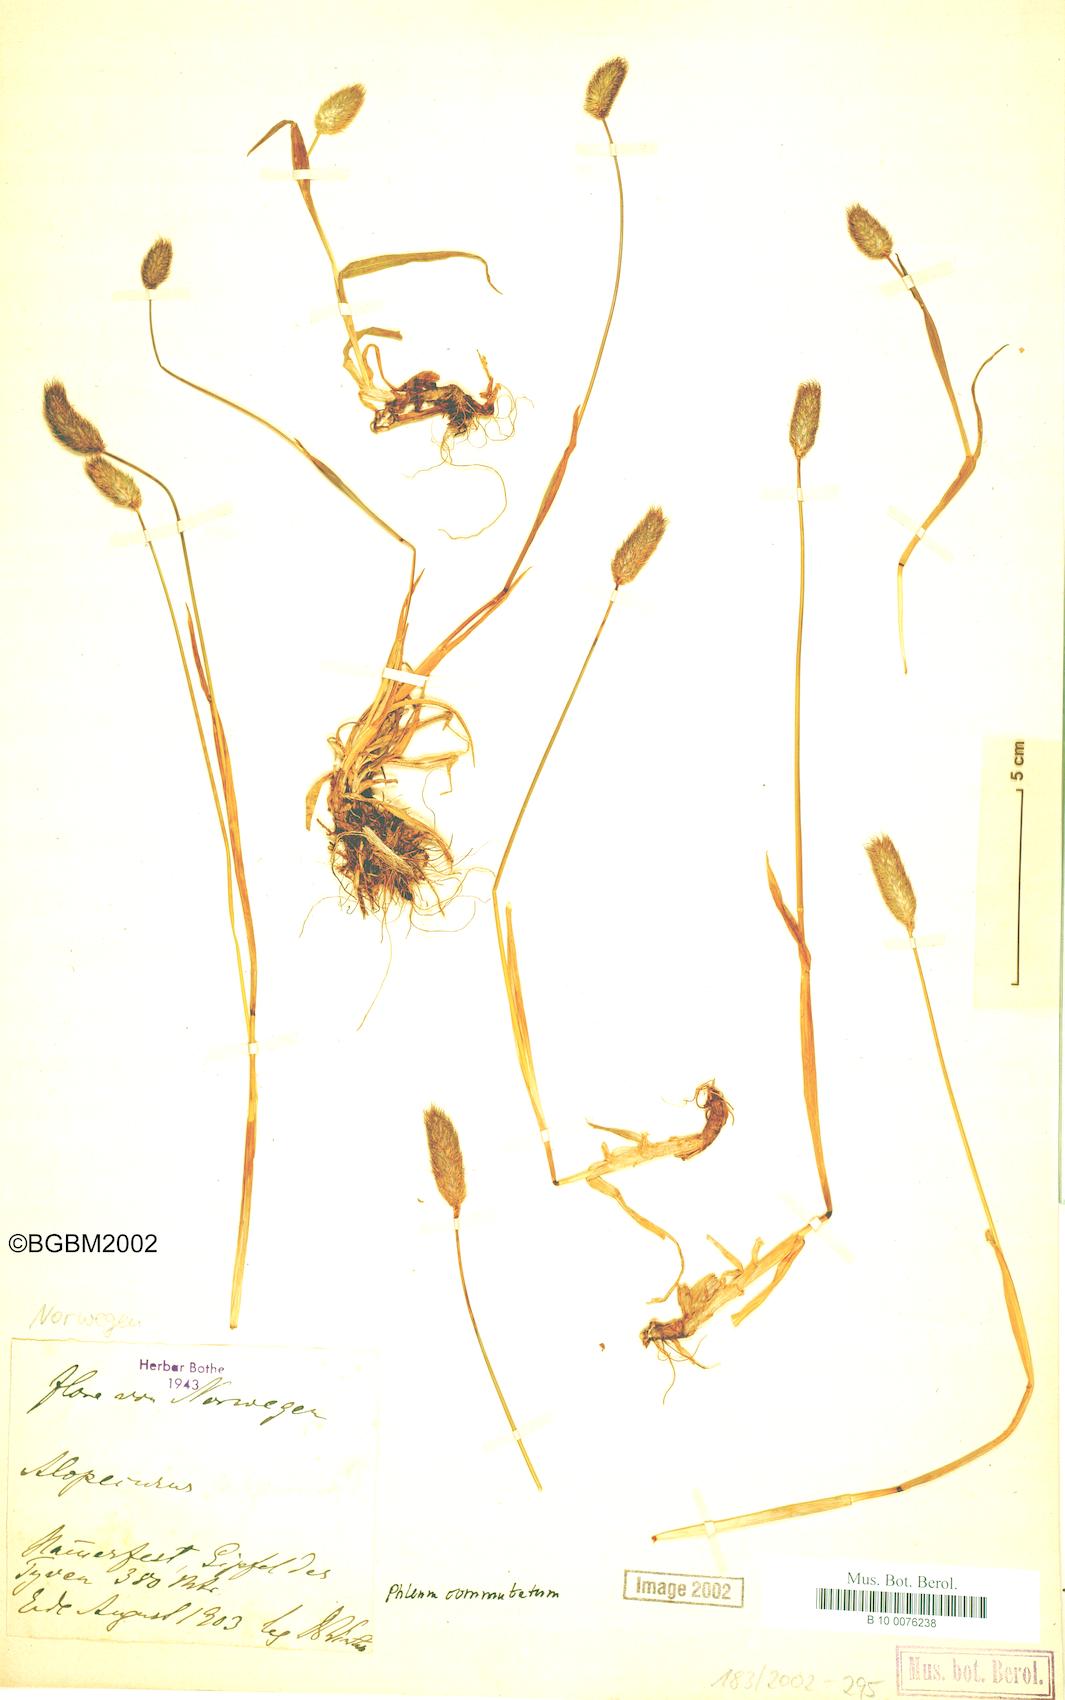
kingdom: Plantae
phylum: Tracheophyta
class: Liliopsida
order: Poales
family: Poaceae
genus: Phleum
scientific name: Phleum alpinum
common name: Alpine cat's-tail
